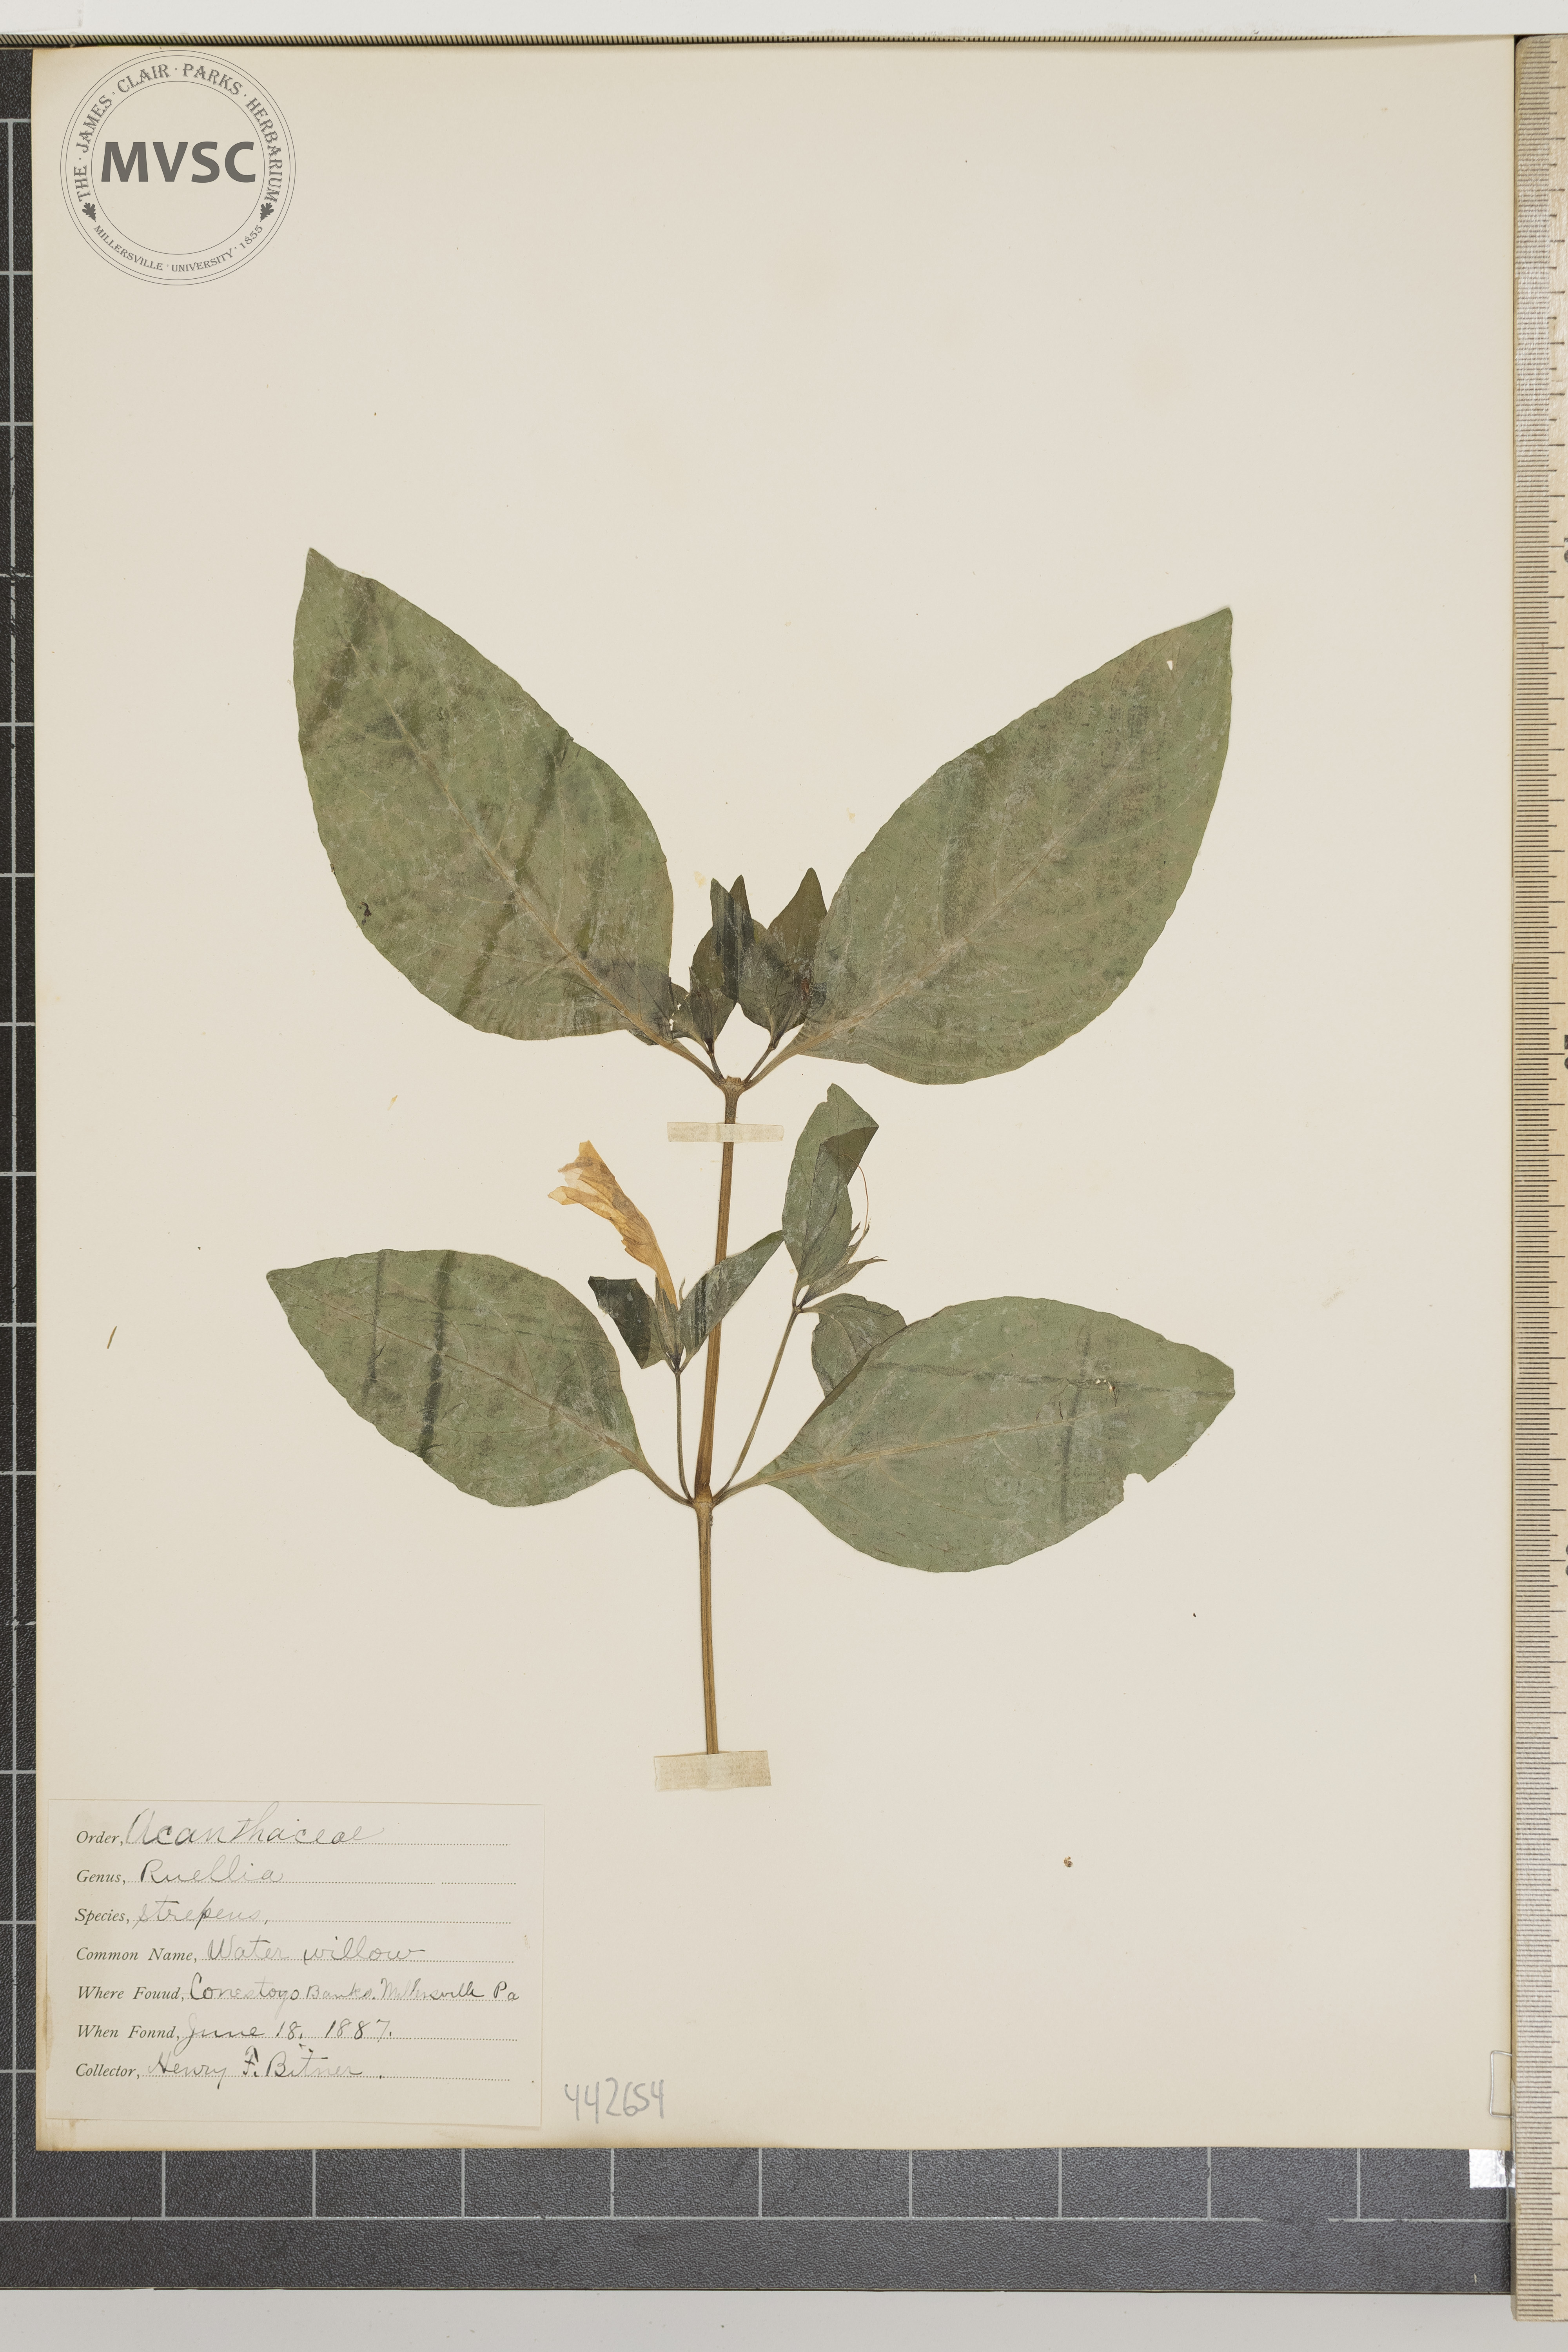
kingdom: Plantae
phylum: Tracheophyta
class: Magnoliopsida
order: Lamiales
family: Acanthaceae
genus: Ruellia
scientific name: Ruellia strepens
